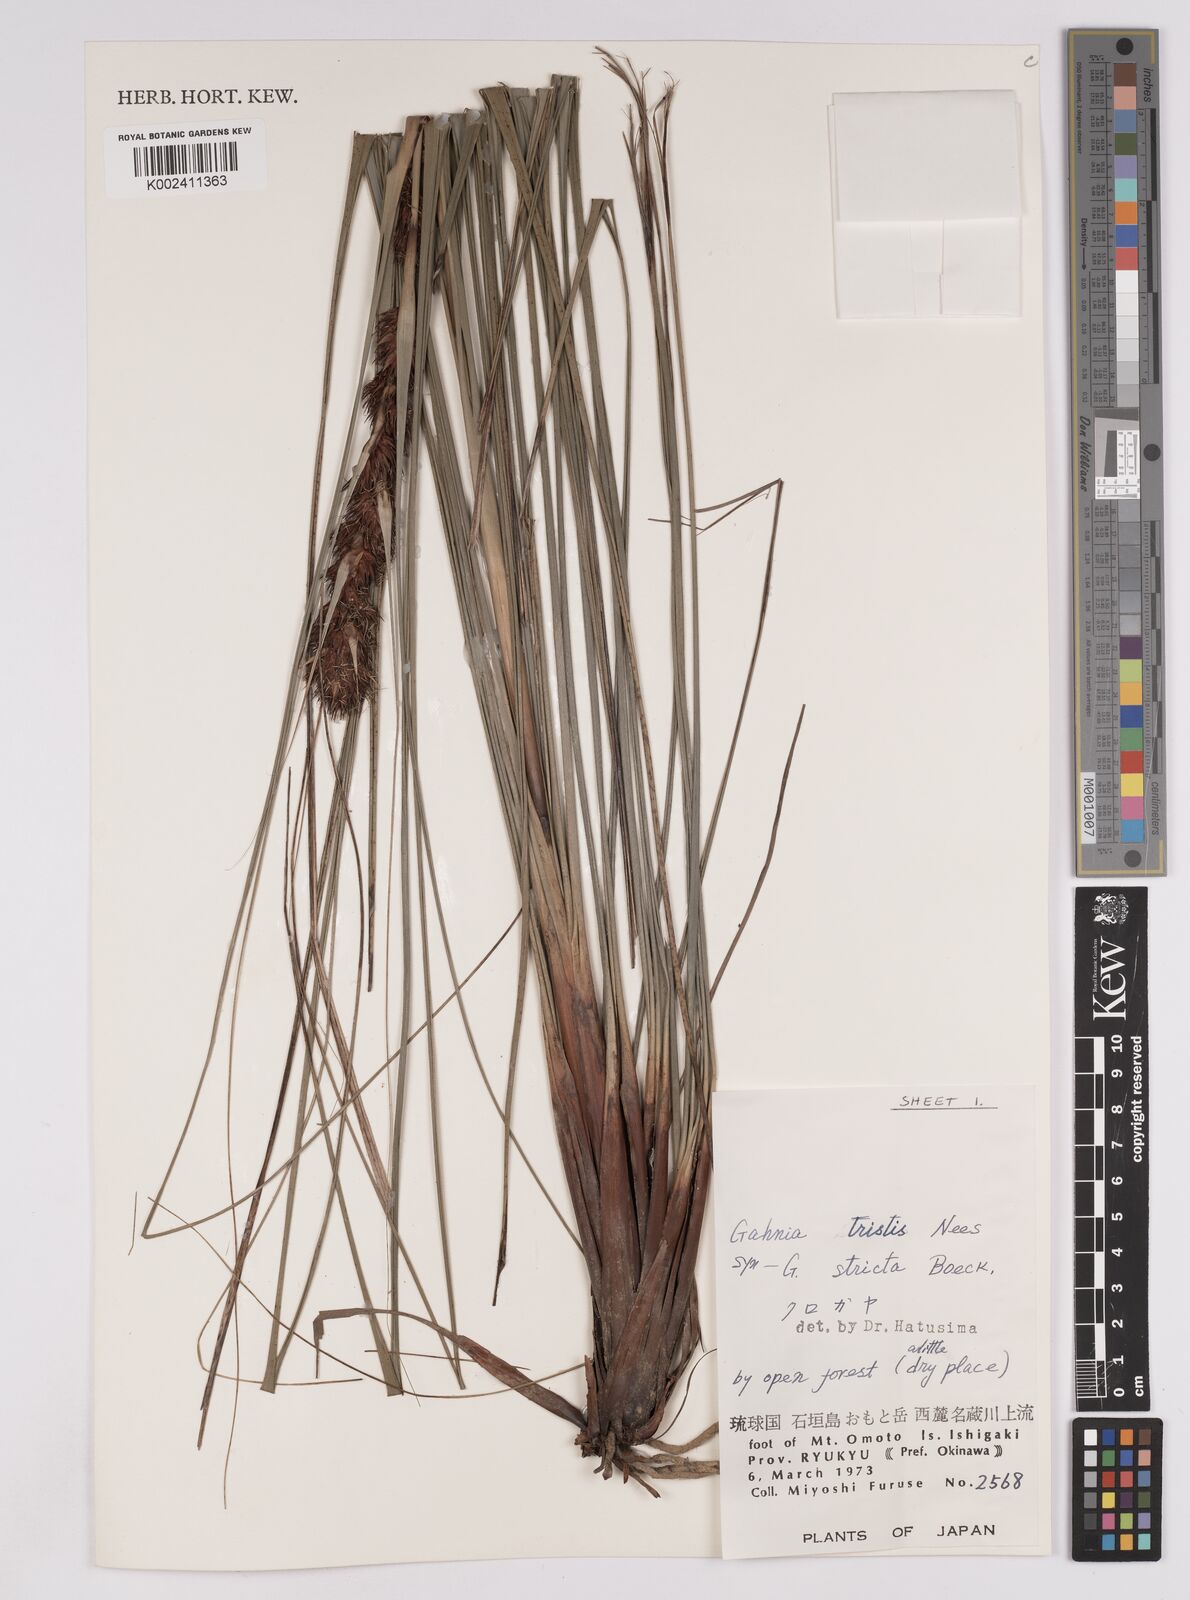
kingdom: Plantae
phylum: Tracheophyta
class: Liliopsida
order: Poales
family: Cyperaceae
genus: Gahnia
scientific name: Gahnia tristis
